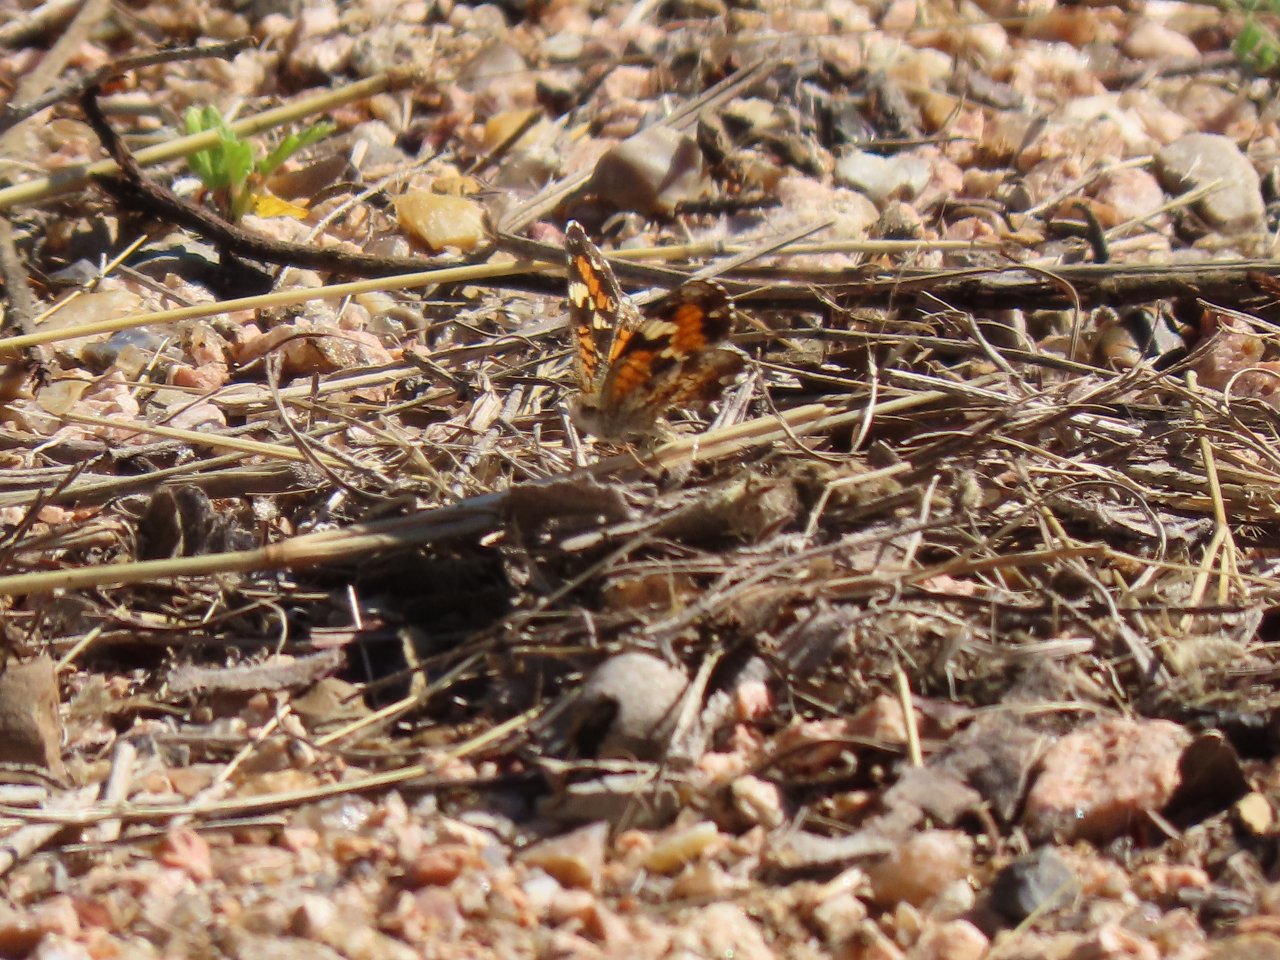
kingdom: Animalia
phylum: Arthropoda
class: Insecta
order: Lepidoptera
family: Nymphalidae
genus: Phyciodes
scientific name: Phyciodes phaon
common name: Phaon Crescent
